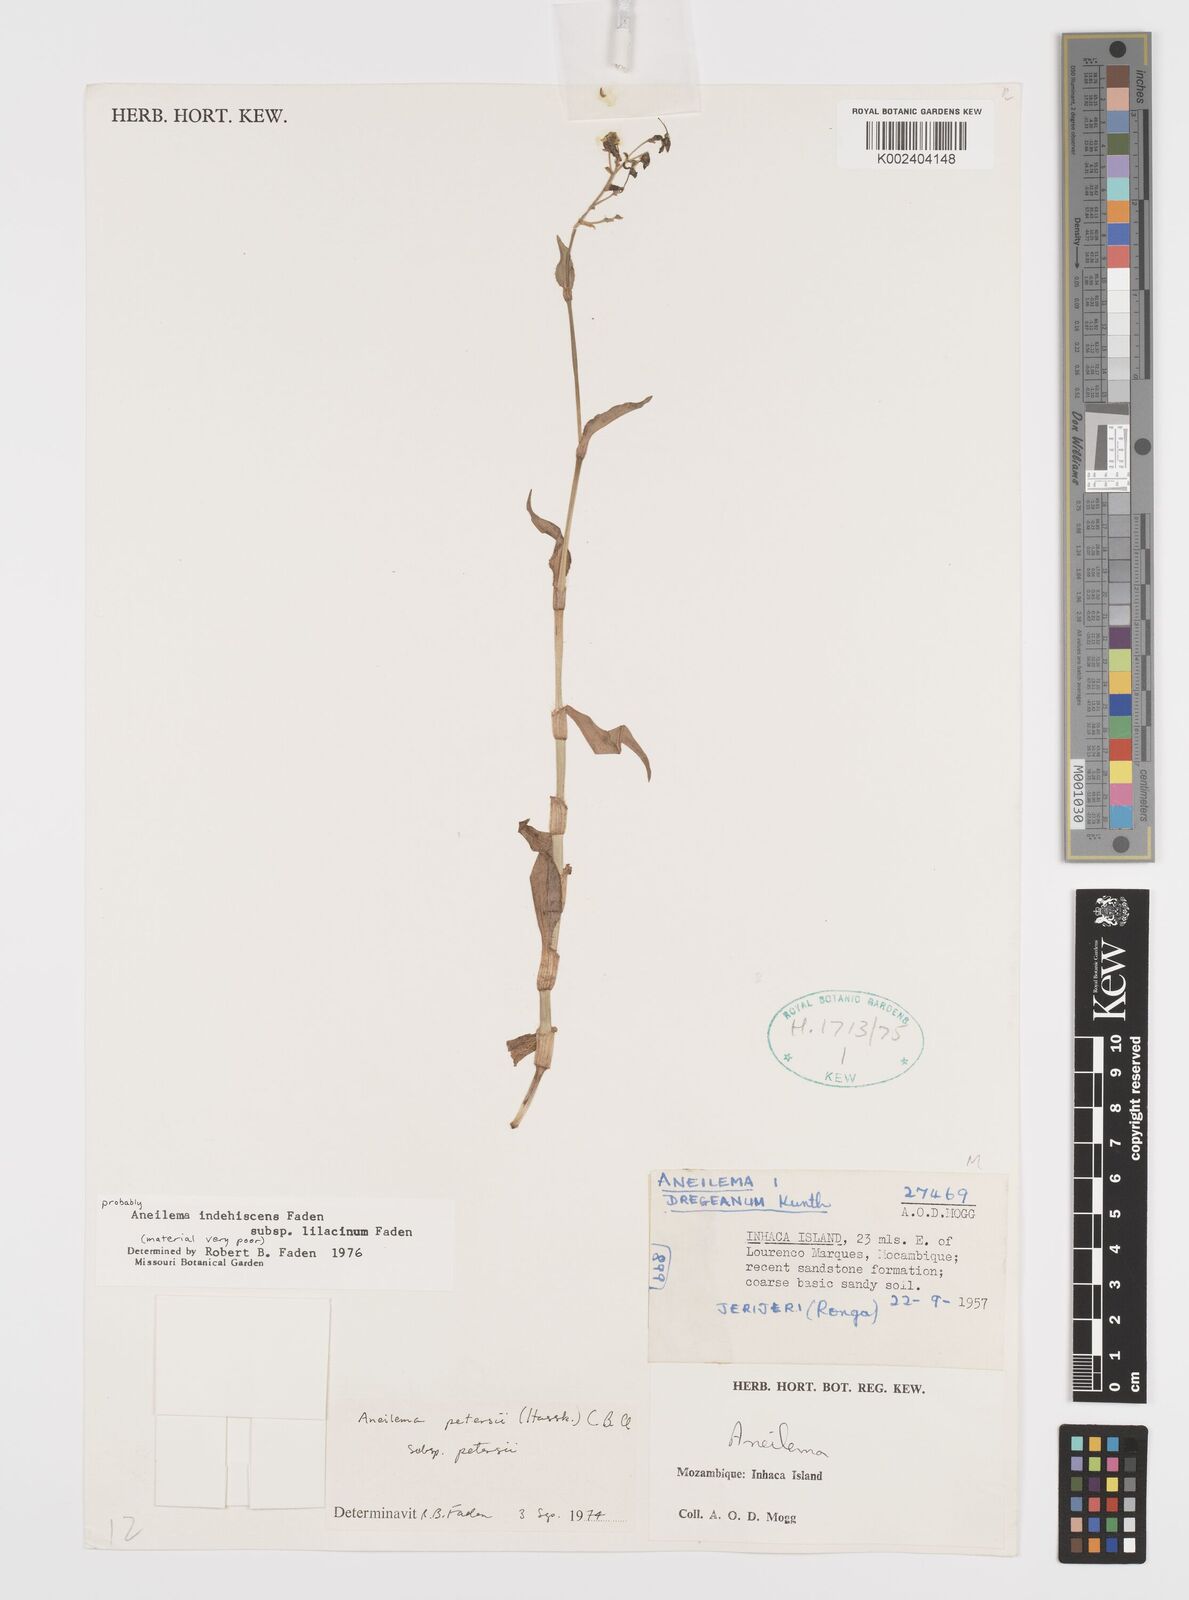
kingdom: Plantae
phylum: Tracheophyta
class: Liliopsida
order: Commelinales
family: Commelinaceae
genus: Aneilema
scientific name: Aneilema indehiscens
